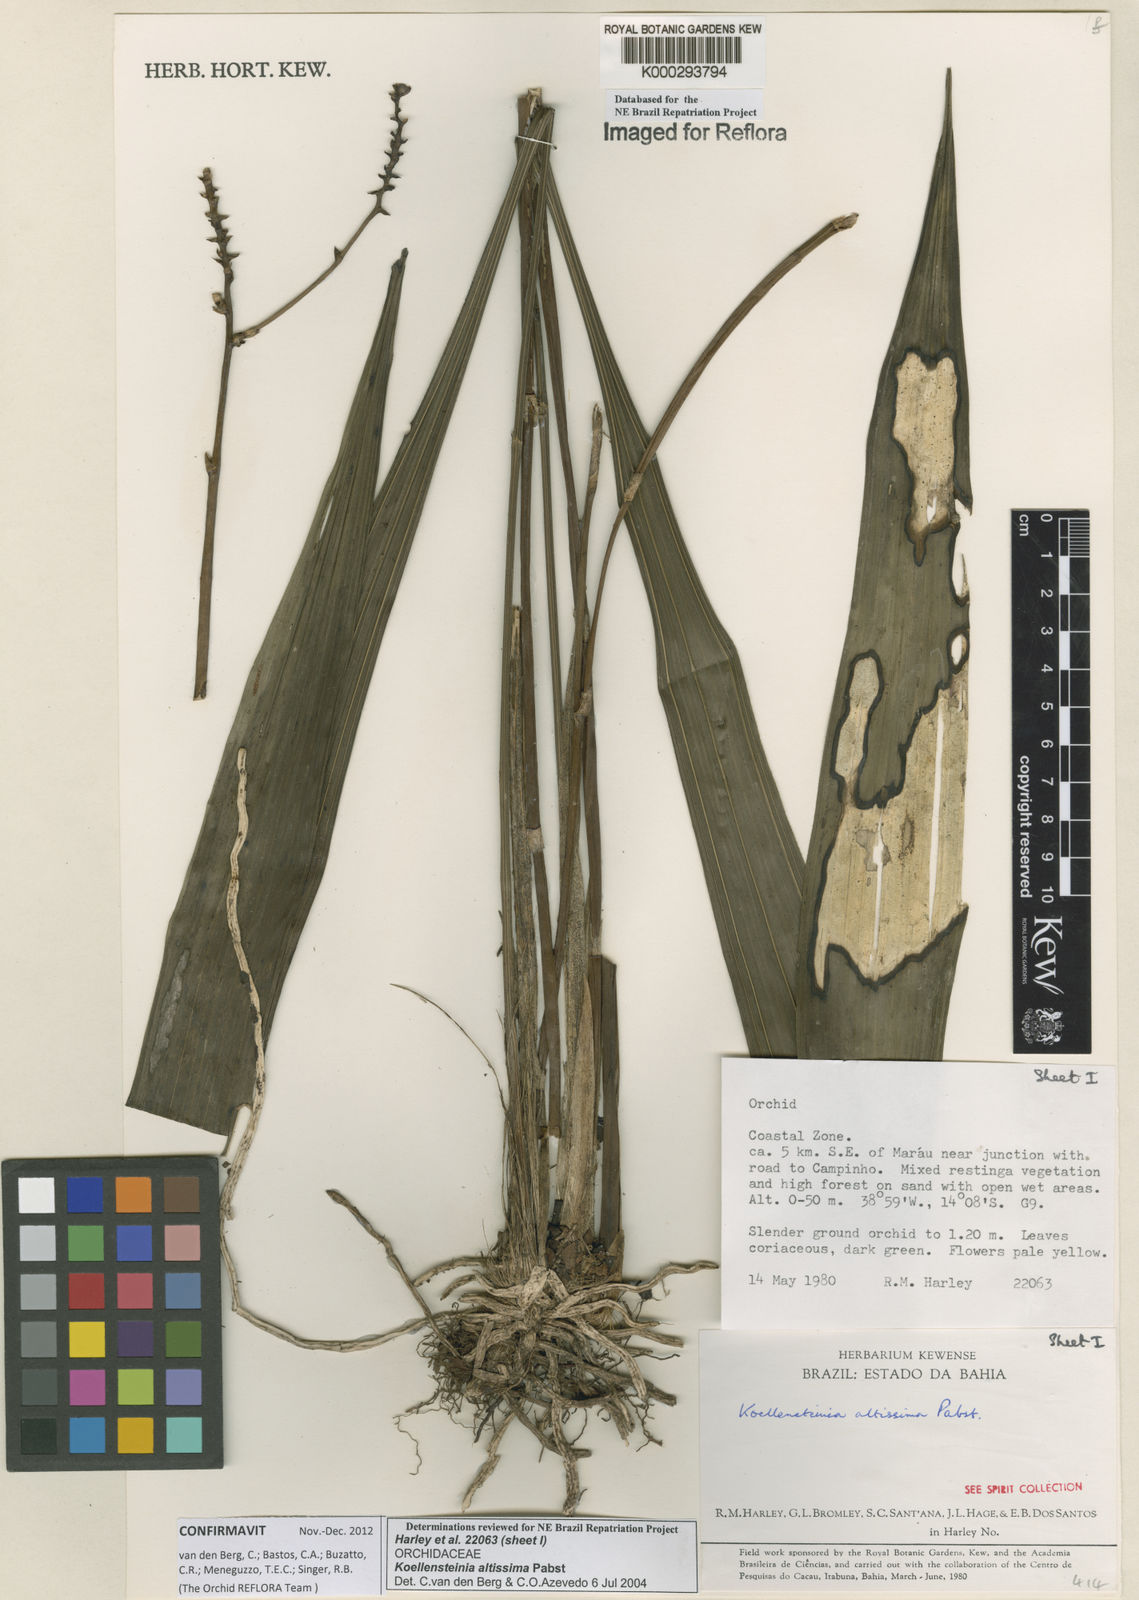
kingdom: Plantae
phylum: Tracheophyta
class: Liliopsida
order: Asparagales
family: Orchidaceae
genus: Koellensteinia
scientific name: Koellensteinia florida
